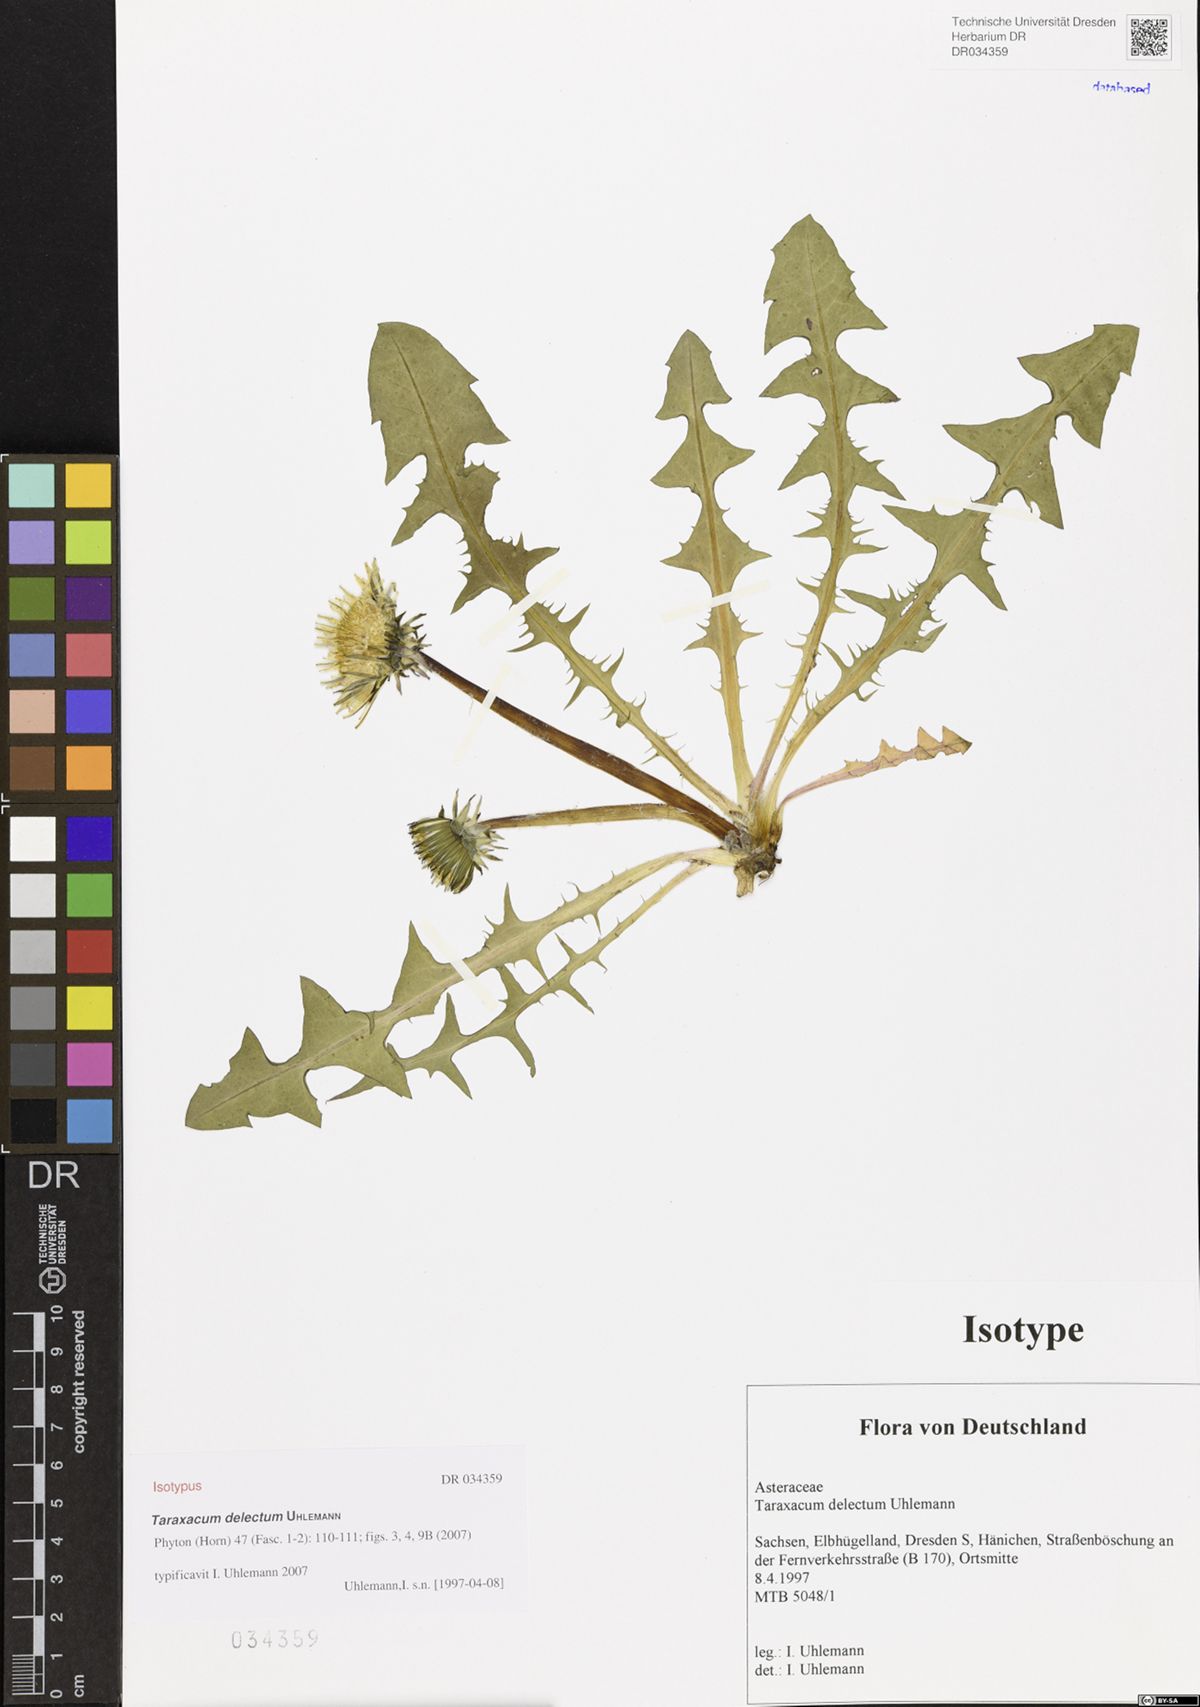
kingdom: Plantae
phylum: Tracheophyta
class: Magnoliopsida
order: Asterales
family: Asteraceae
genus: Taraxacum
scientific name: Taraxacum delectum
